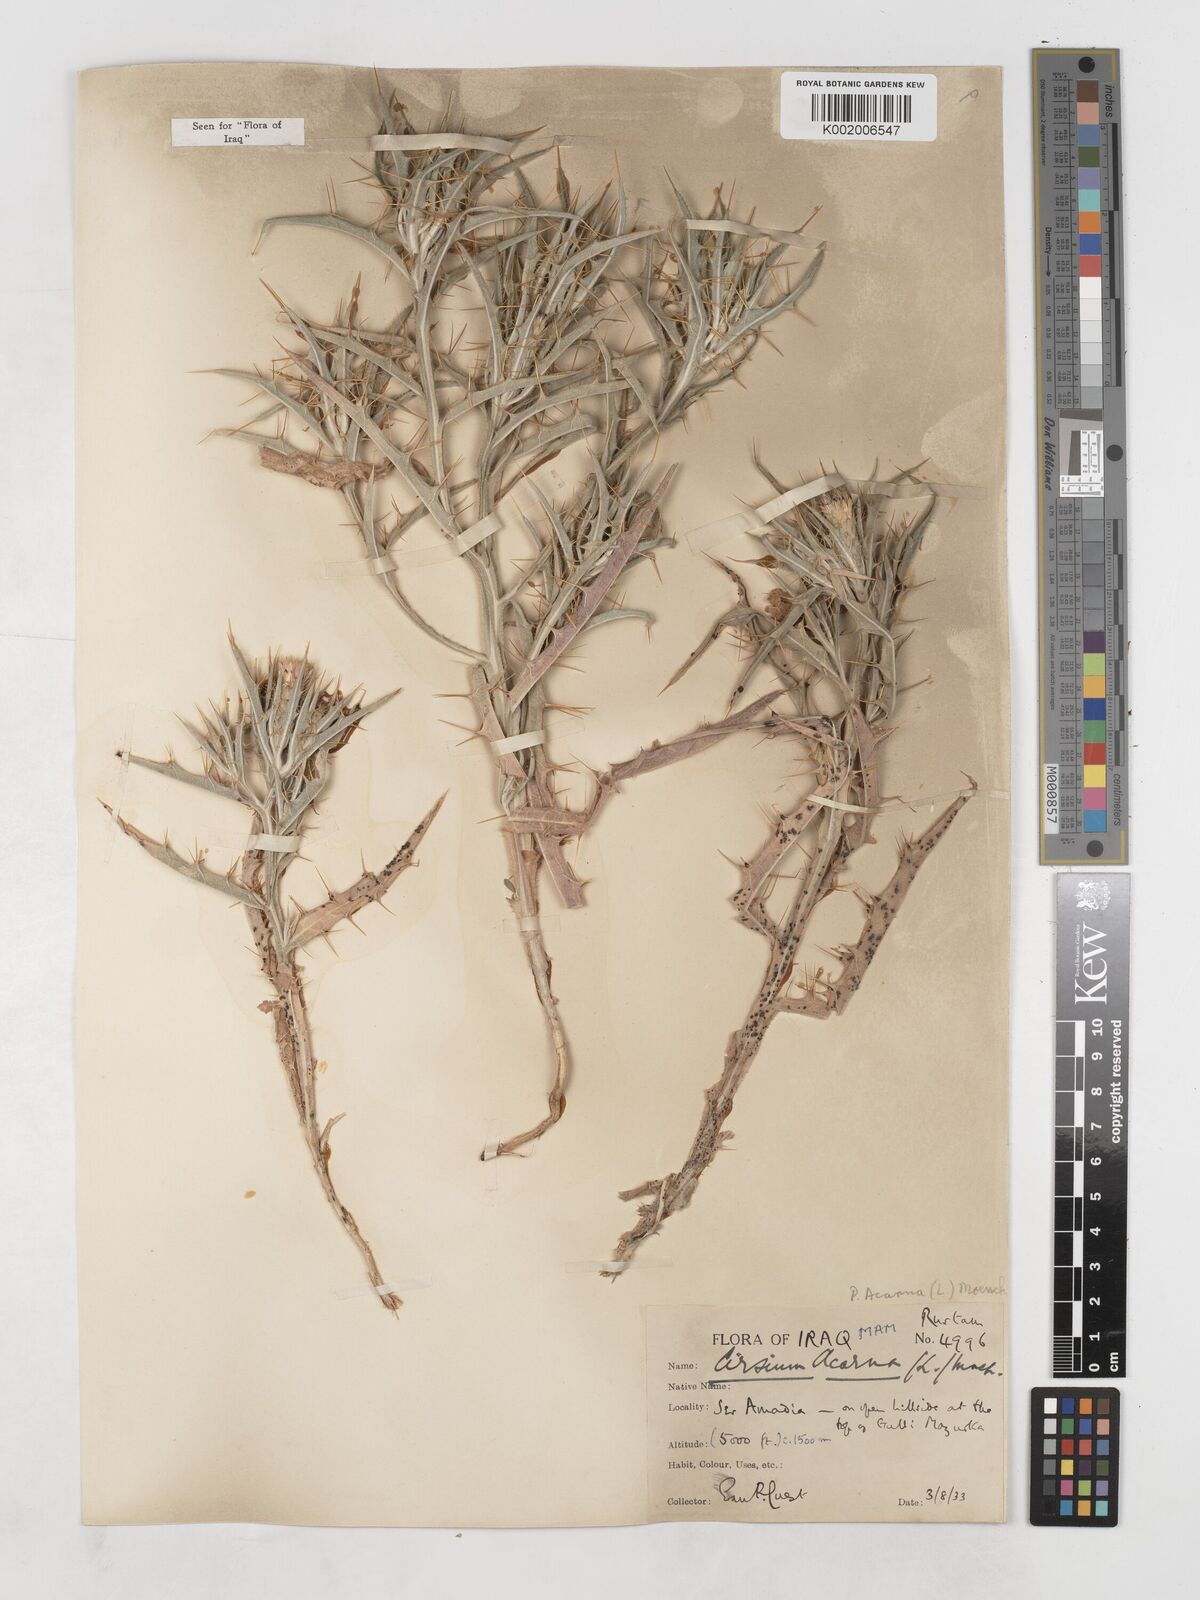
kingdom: Plantae
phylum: Tracheophyta
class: Magnoliopsida
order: Asterales
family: Asteraceae
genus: Picnomon
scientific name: Picnomon acarna
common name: Soldier thistle
